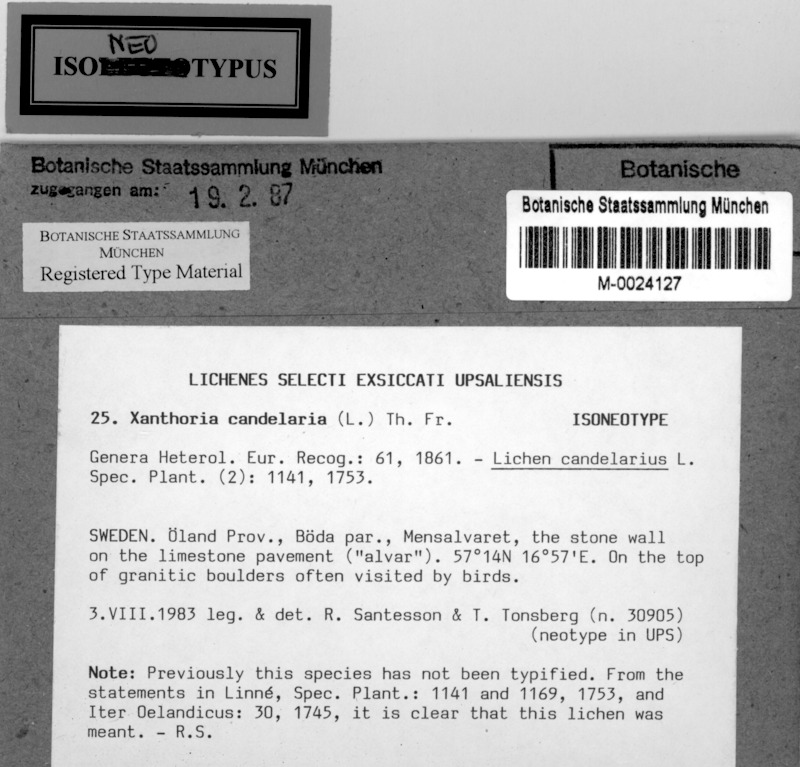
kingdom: Fungi
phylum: Ascomycota
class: Lecanoromycetes
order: Teloschistales
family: Teloschistaceae
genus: Polycauliona
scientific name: Polycauliona candelaria
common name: Shrubby sunburst lichen
